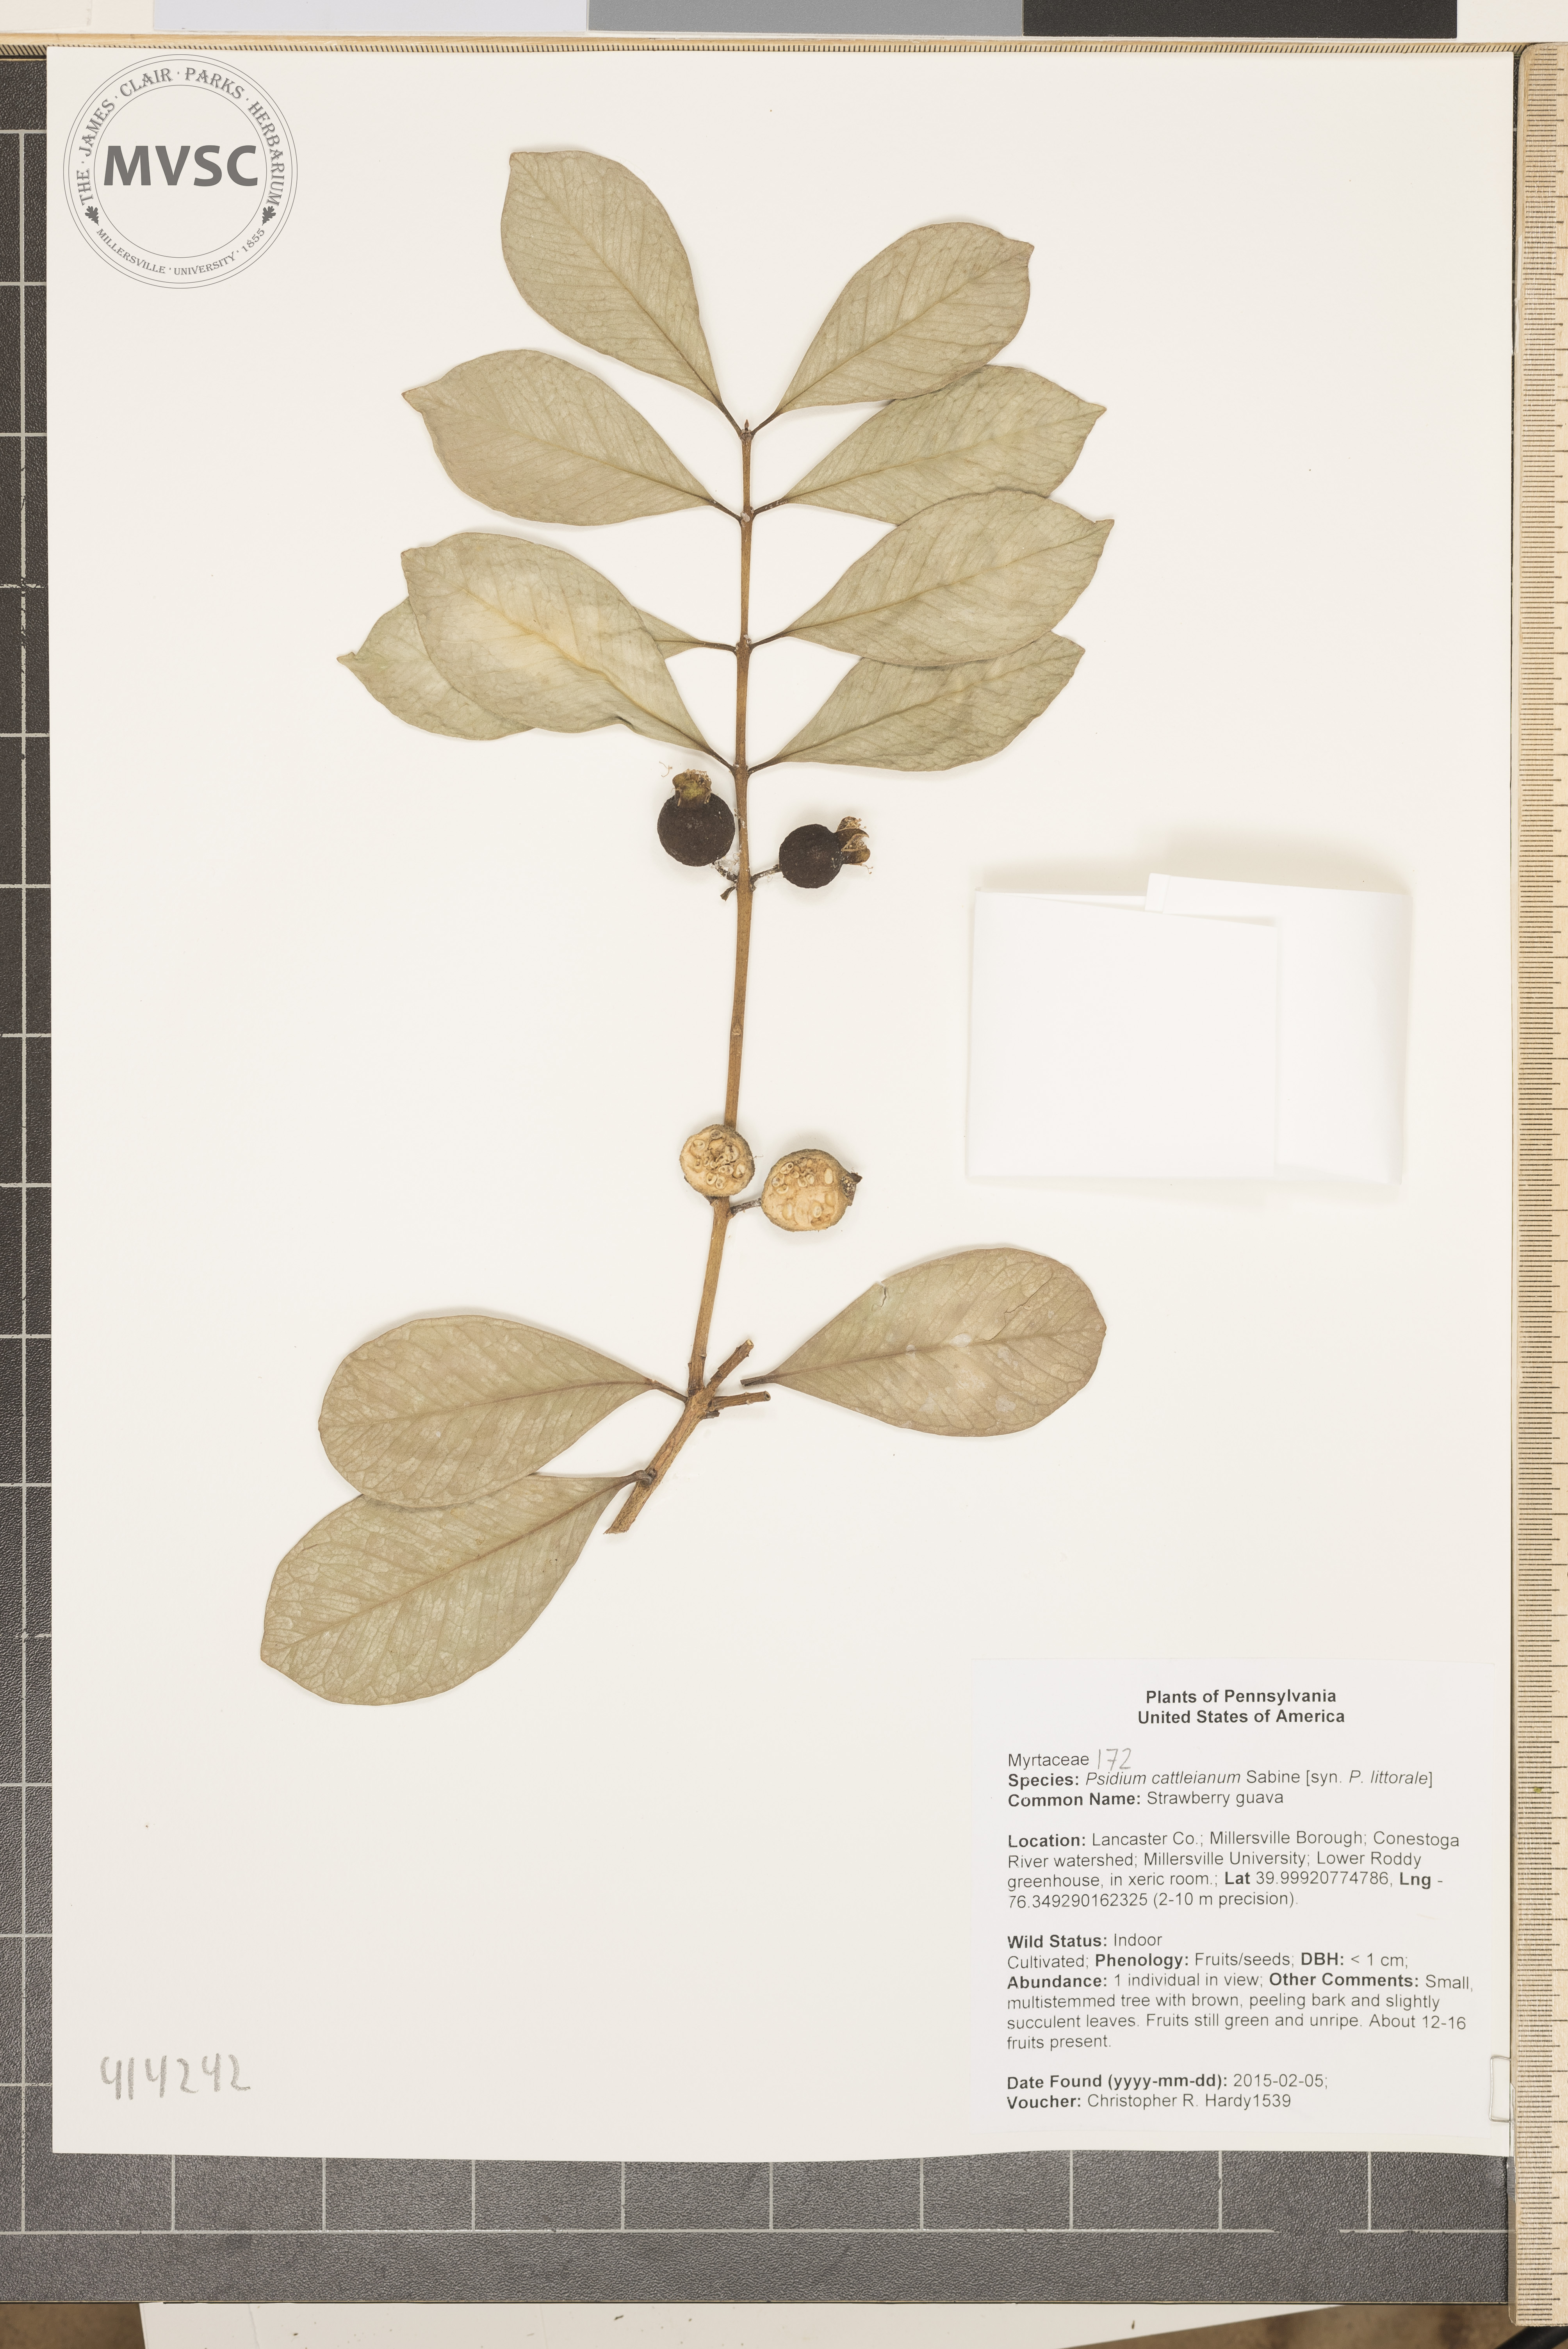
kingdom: Plantae
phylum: Tracheophyta
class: Magnoliopsida
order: Myrtales
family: Myrtaceae
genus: Psidium
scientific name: Psidium cattleianum
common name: Strawberry guava
